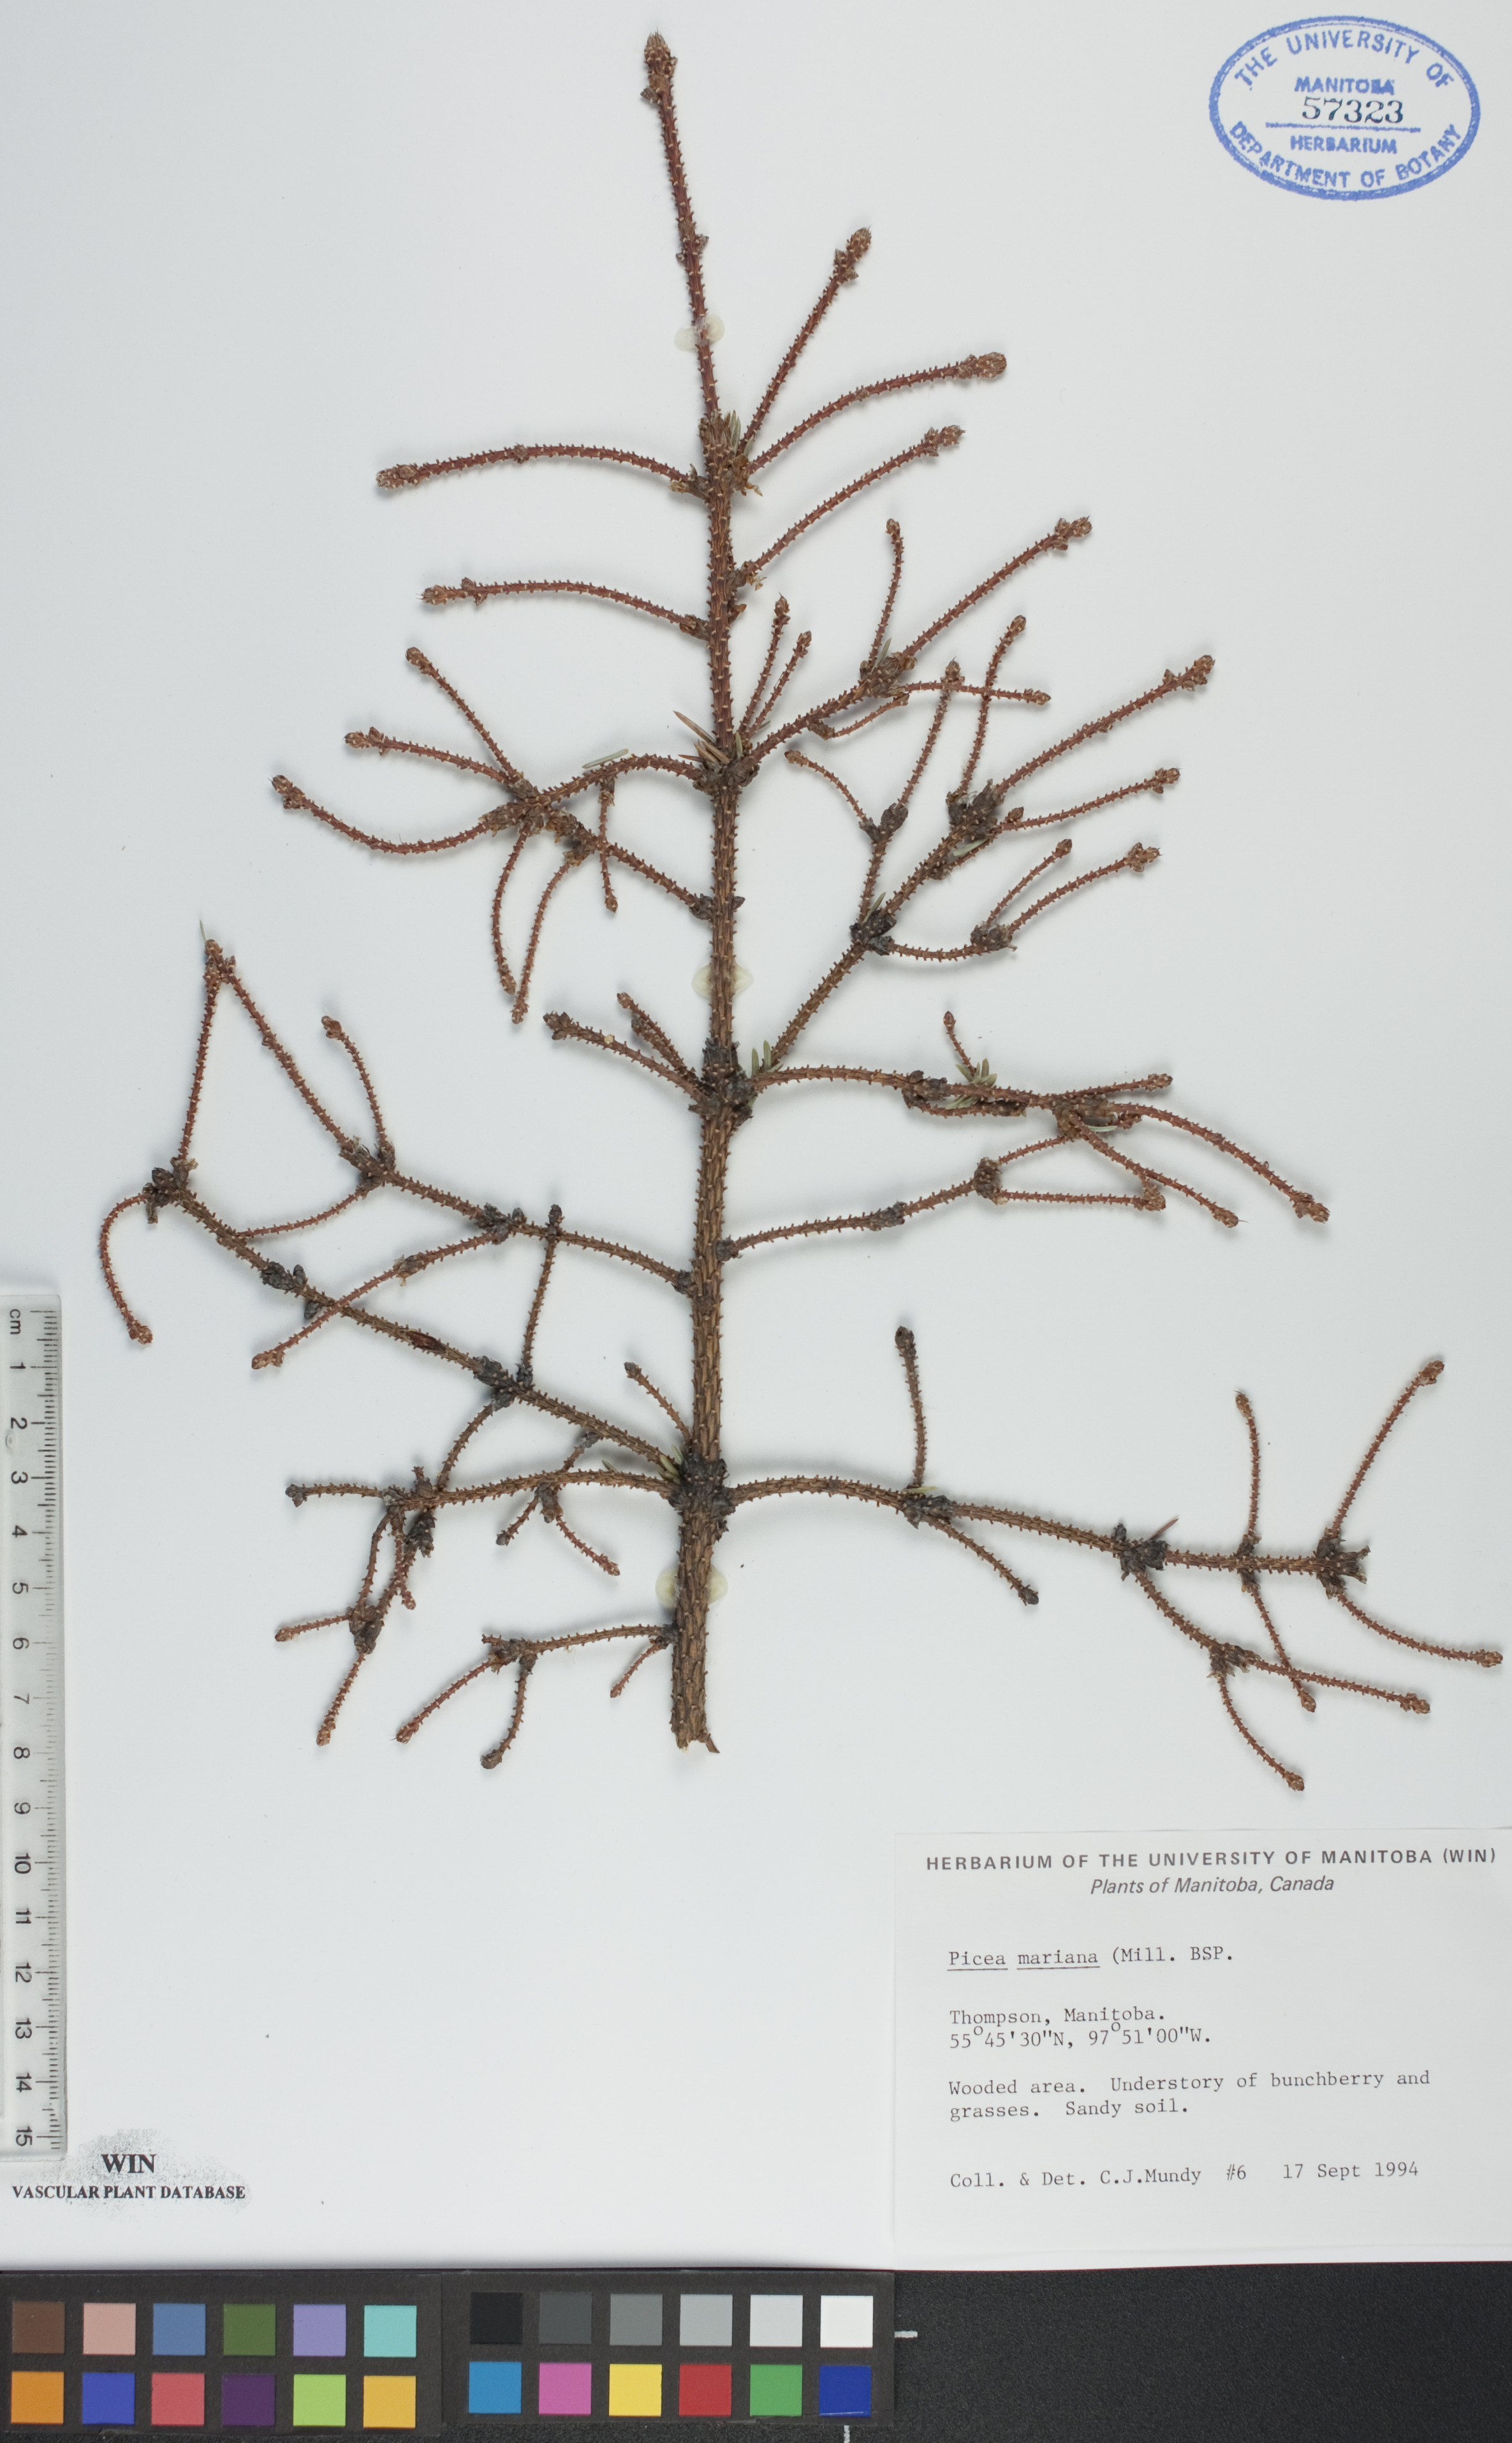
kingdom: Plantae
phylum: Tracheophyta
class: Pinopsida
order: Pinales
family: Pinaceae
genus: Picea
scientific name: Picea mariana
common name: Black spruce
